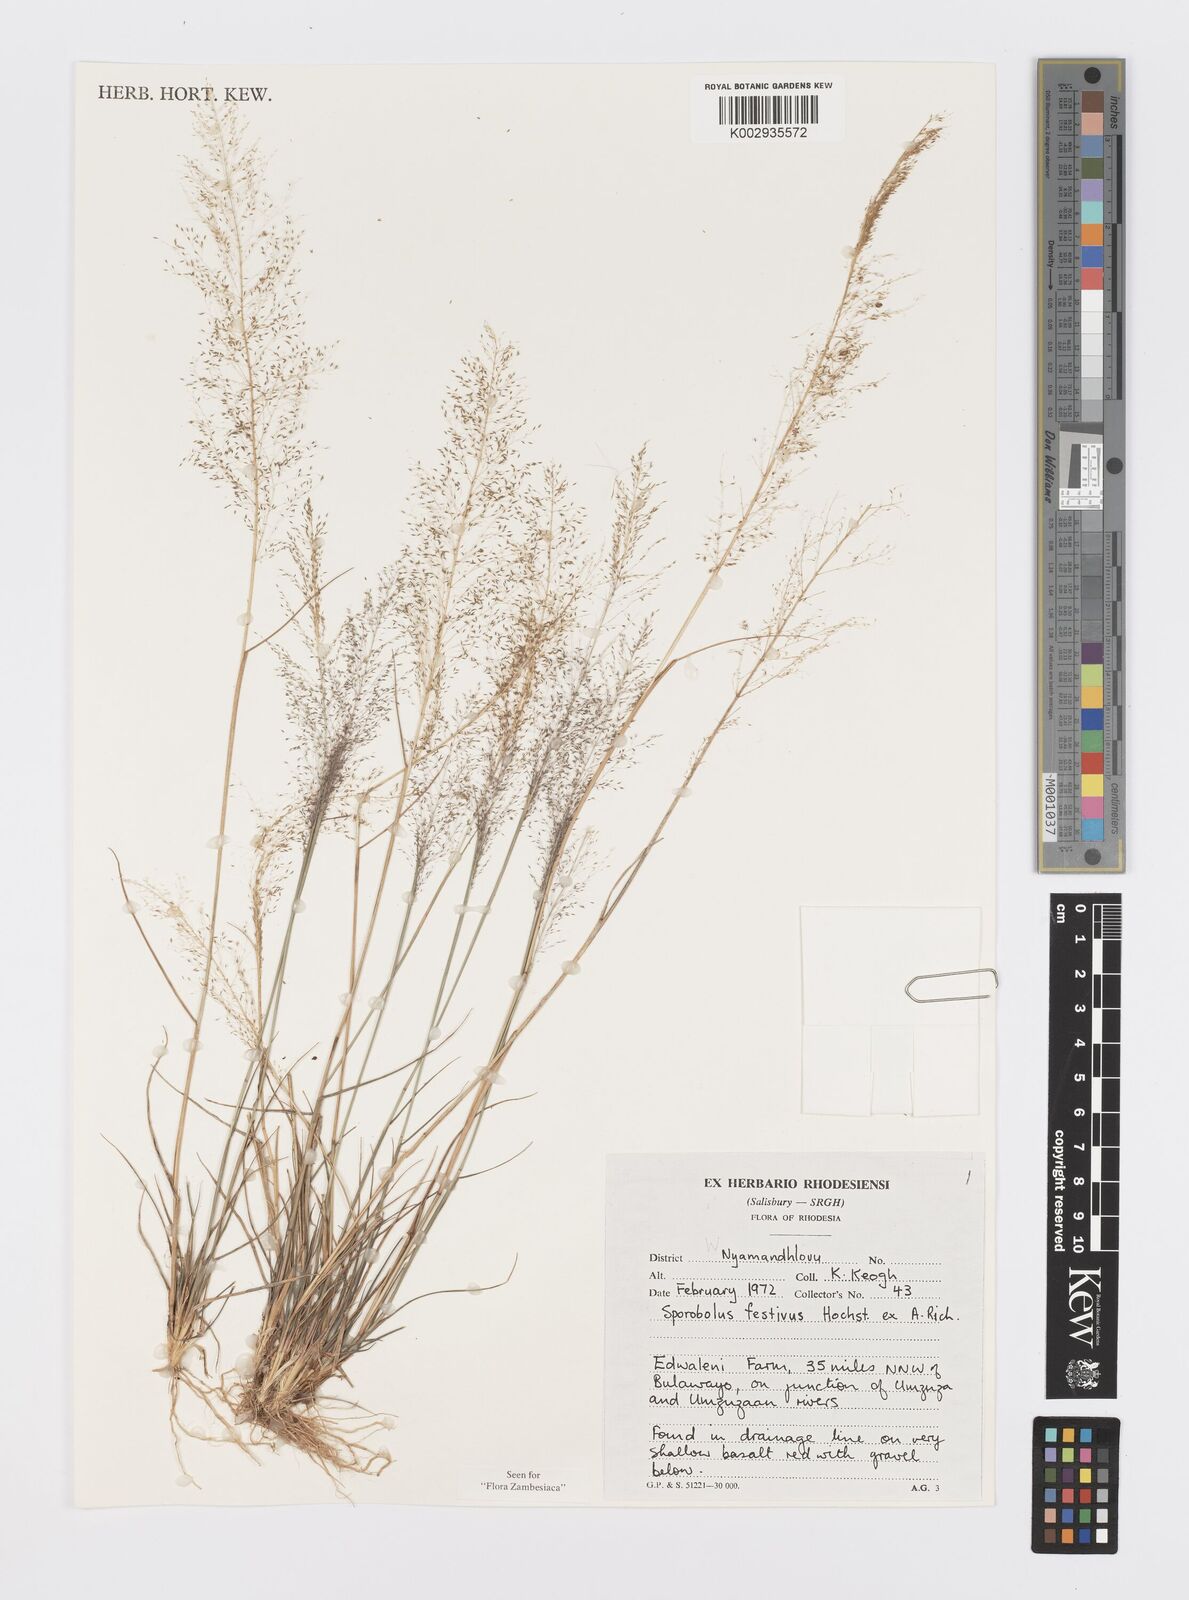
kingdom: Plantae
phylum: Tracheophyta
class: Liliopsida
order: Poales
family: Poaceae
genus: Sporobolus
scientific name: Sporobolus festivus
